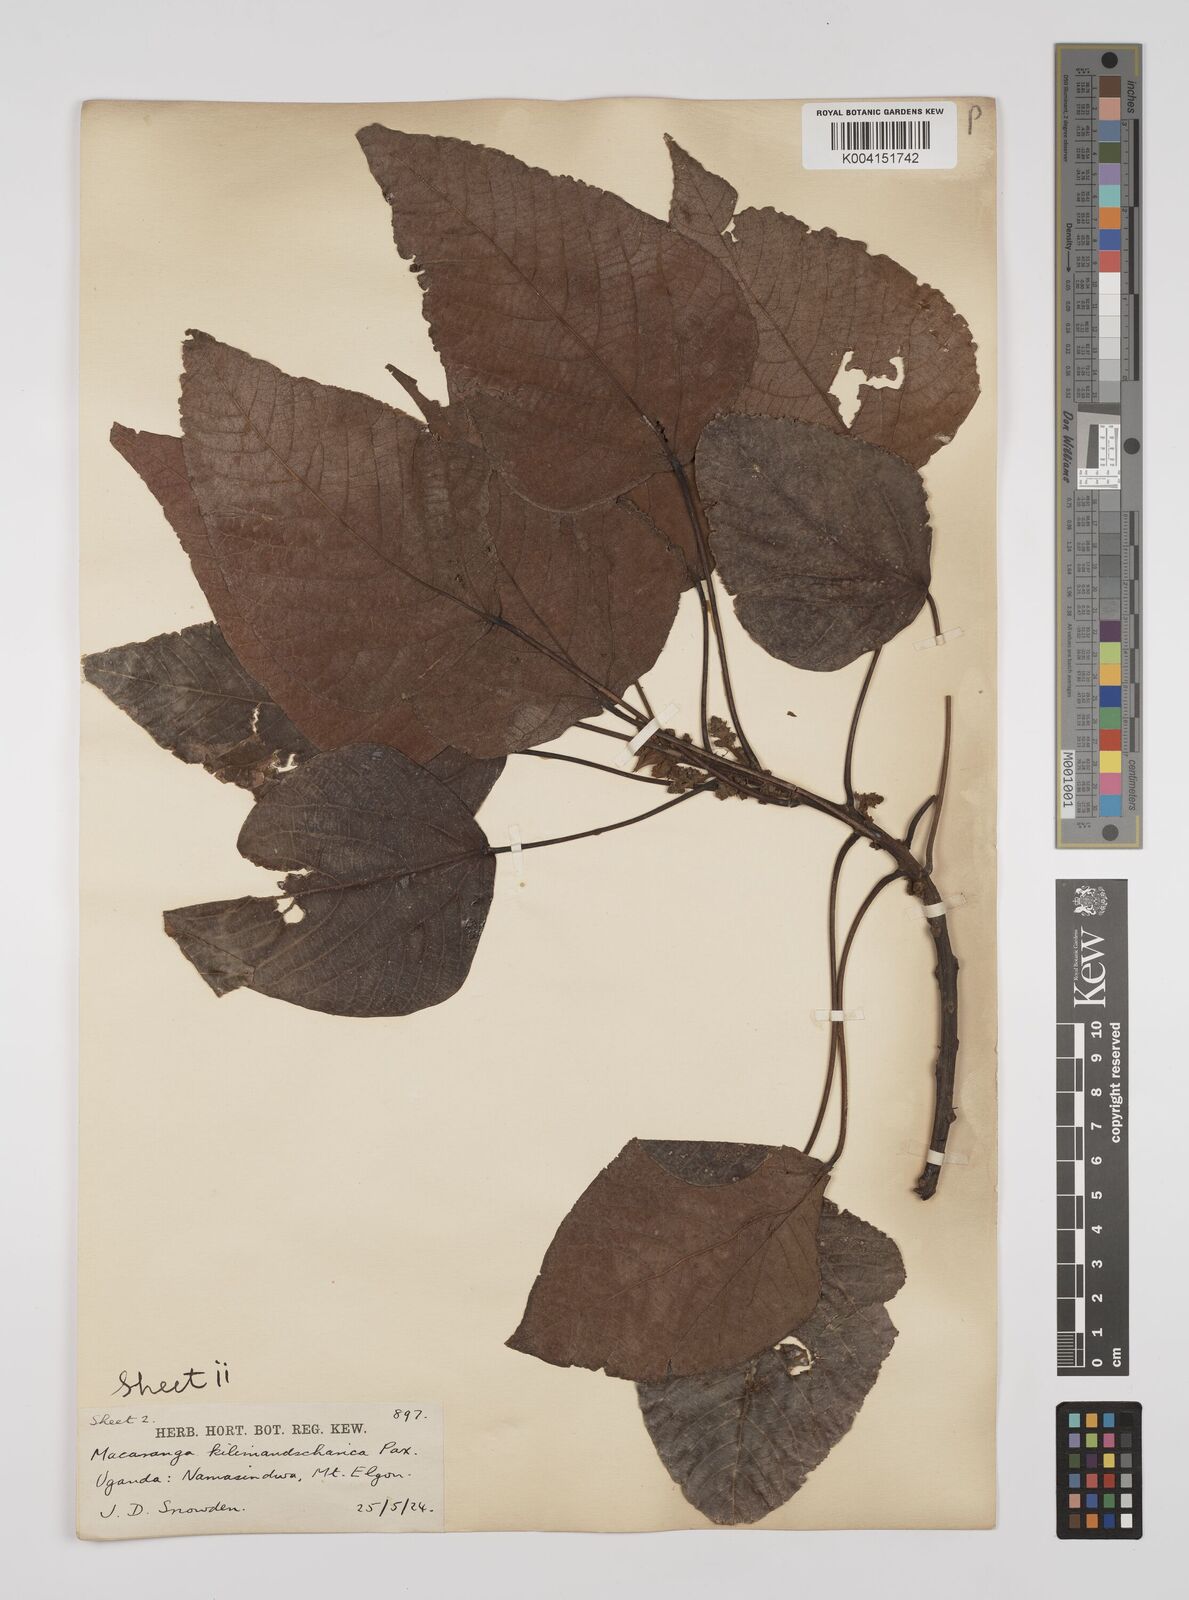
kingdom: Plantae
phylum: Tracheophyta
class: Magnoliopsida
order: Malpighiales
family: Euphorbiaceae
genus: Macaranga
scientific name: Macaranga kilimandscharica
